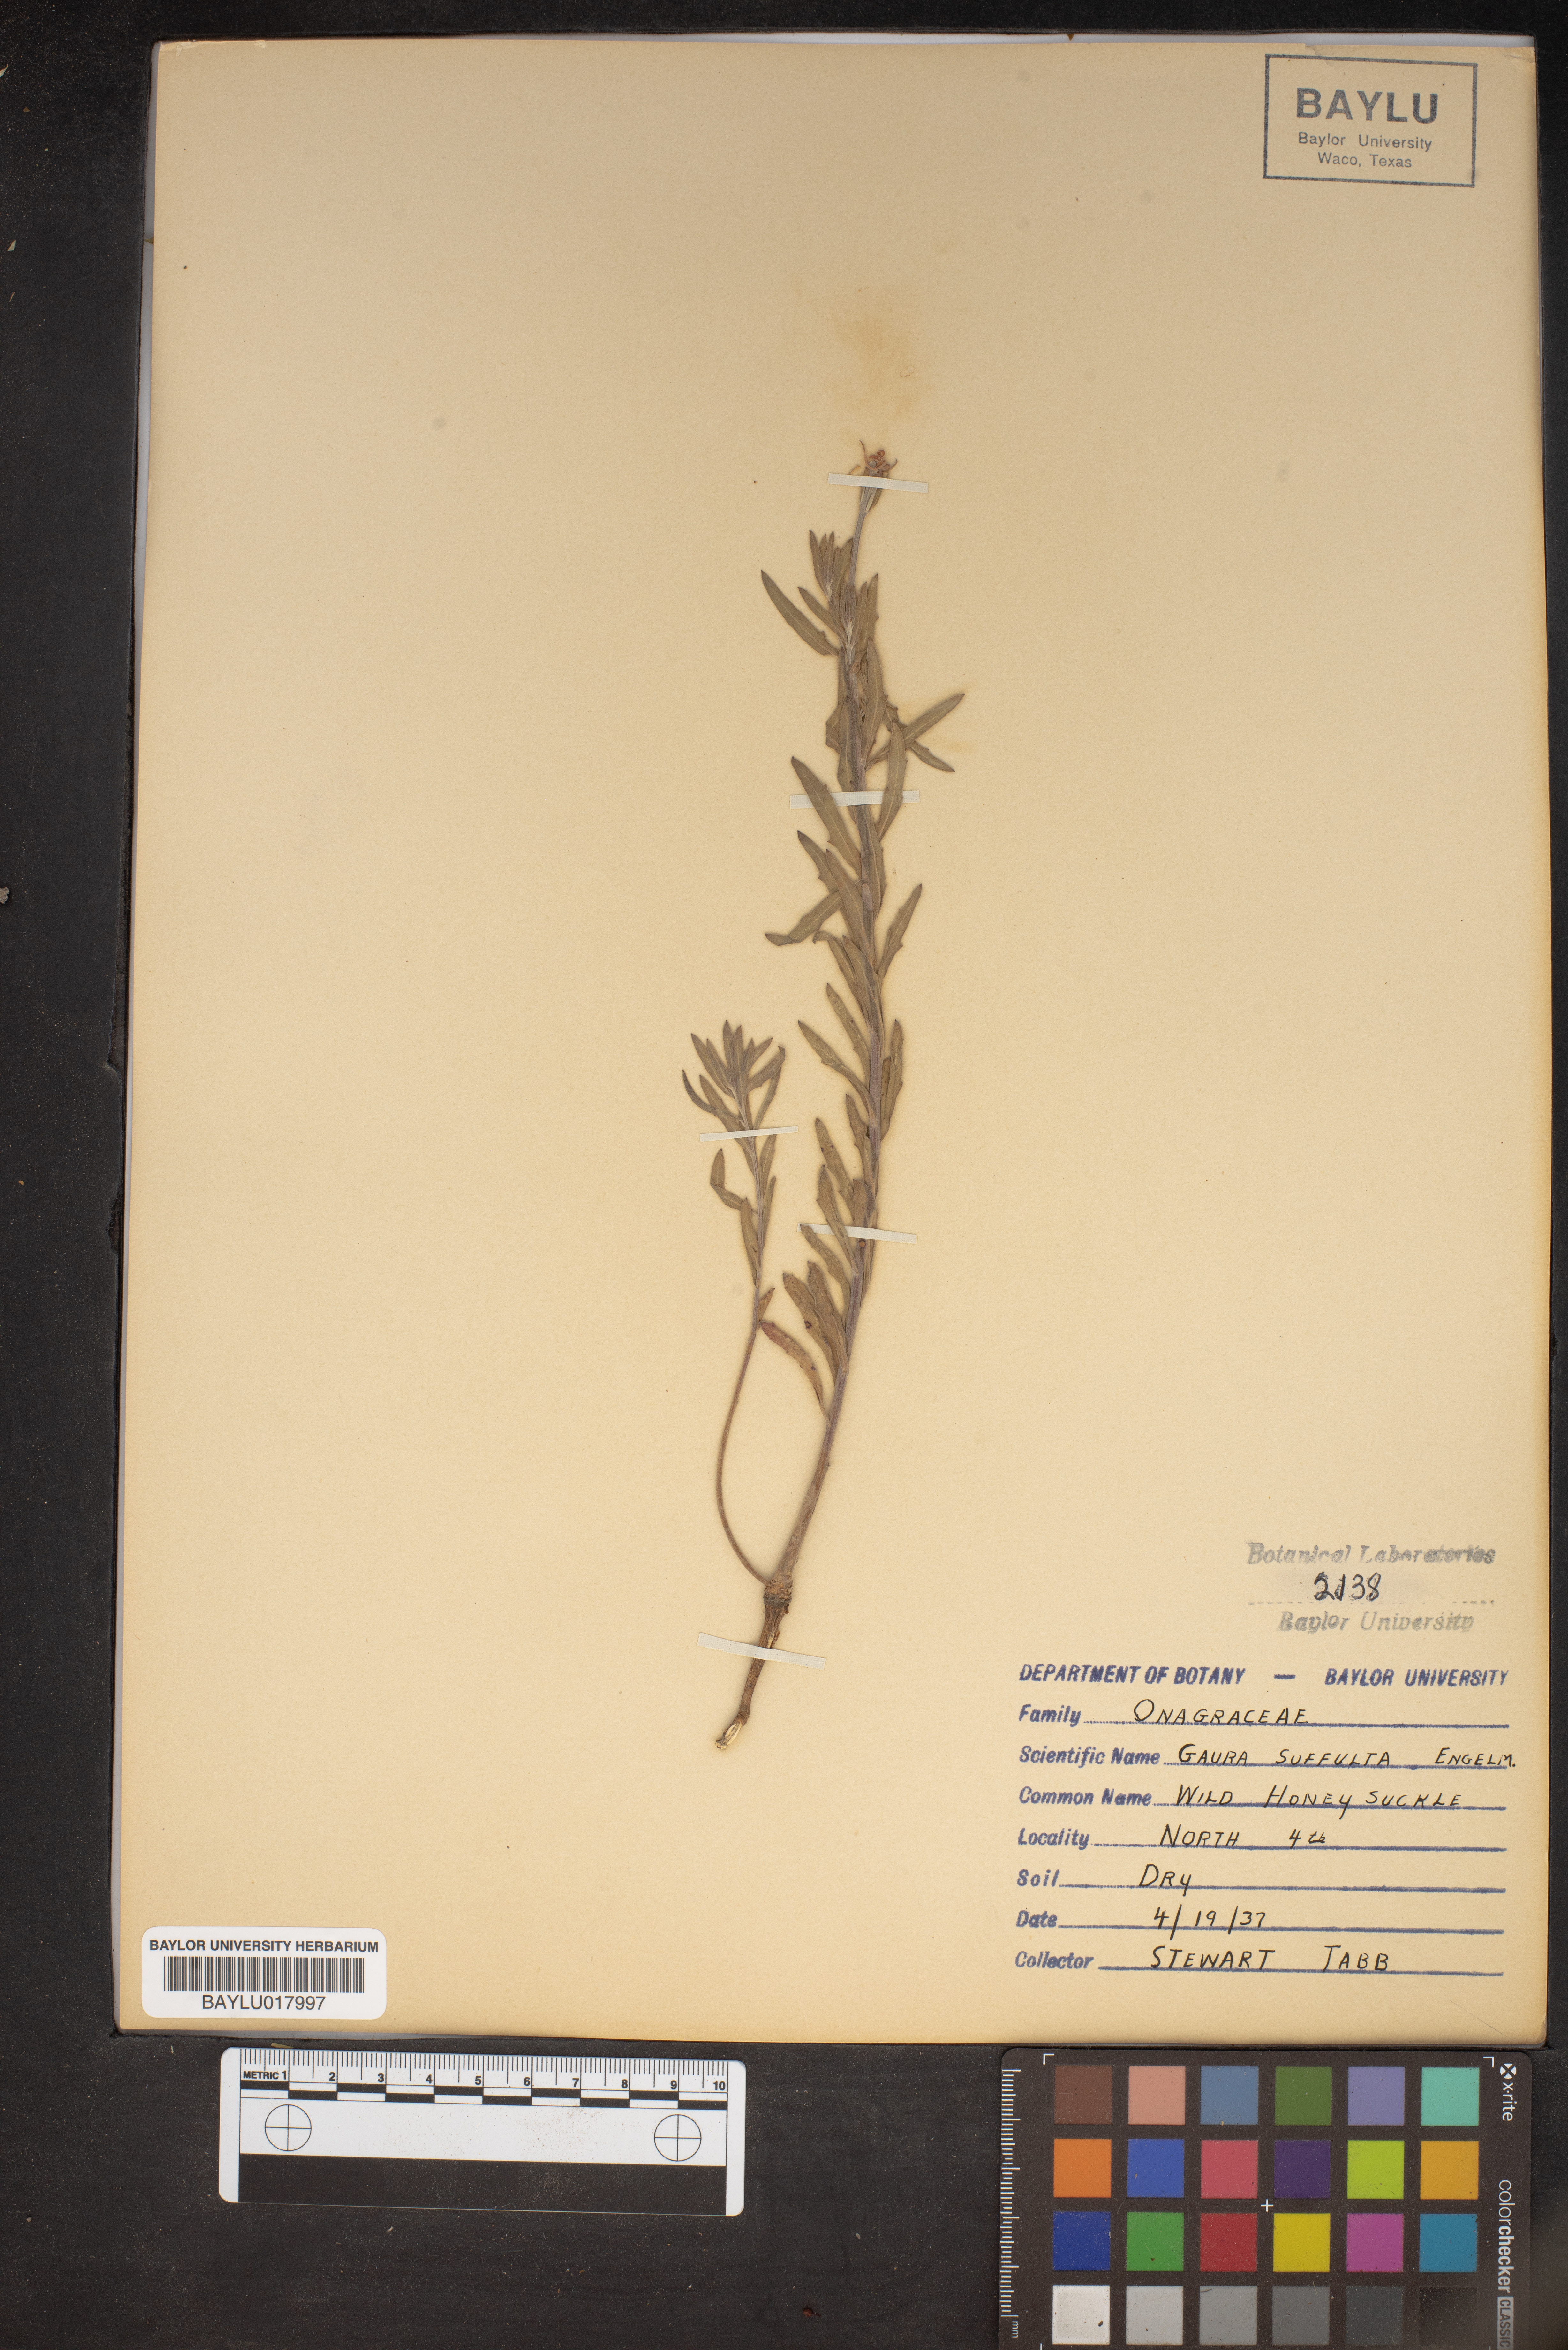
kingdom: Plantae
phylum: Tracheophyta
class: Magnoliopsida
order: Myrtales
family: Onagraceae
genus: Oenothera
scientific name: Oenothera Gaura suffulta
